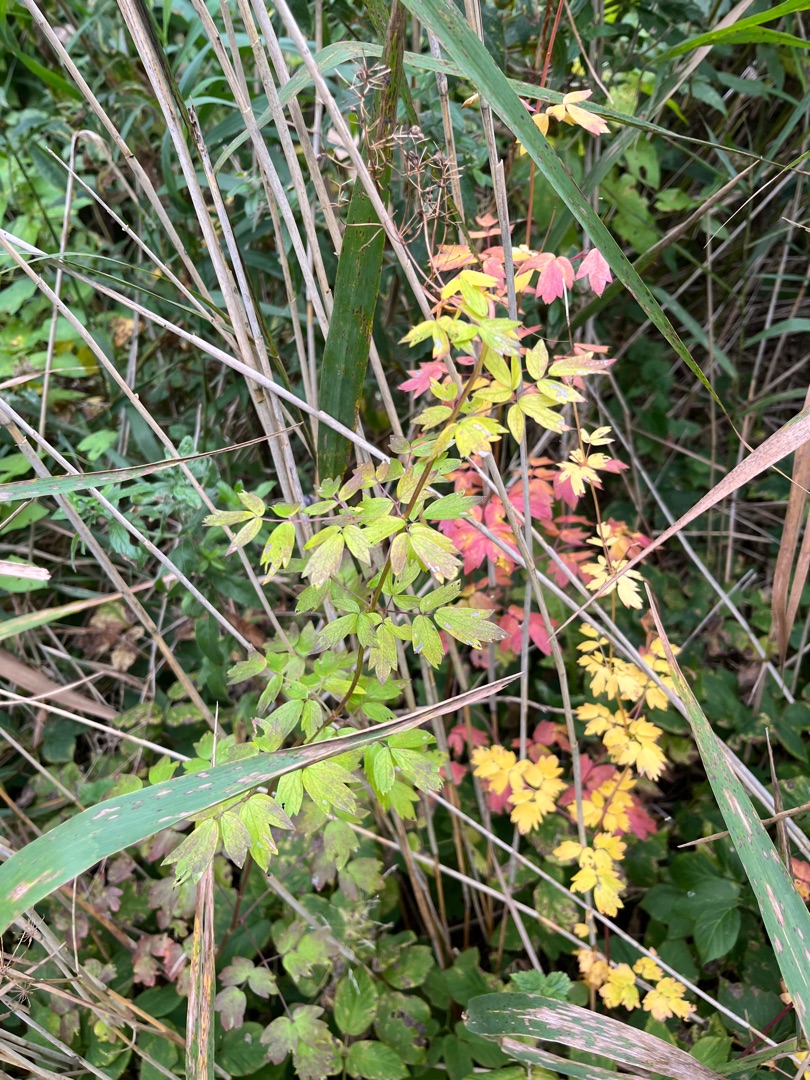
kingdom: Plantae
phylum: Tracheophyta
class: Magnoliopsida
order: Ranunculales
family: Ranunculaceae
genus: Thalictrum
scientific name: Thalictrum flavum
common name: Gul frøstjerne
